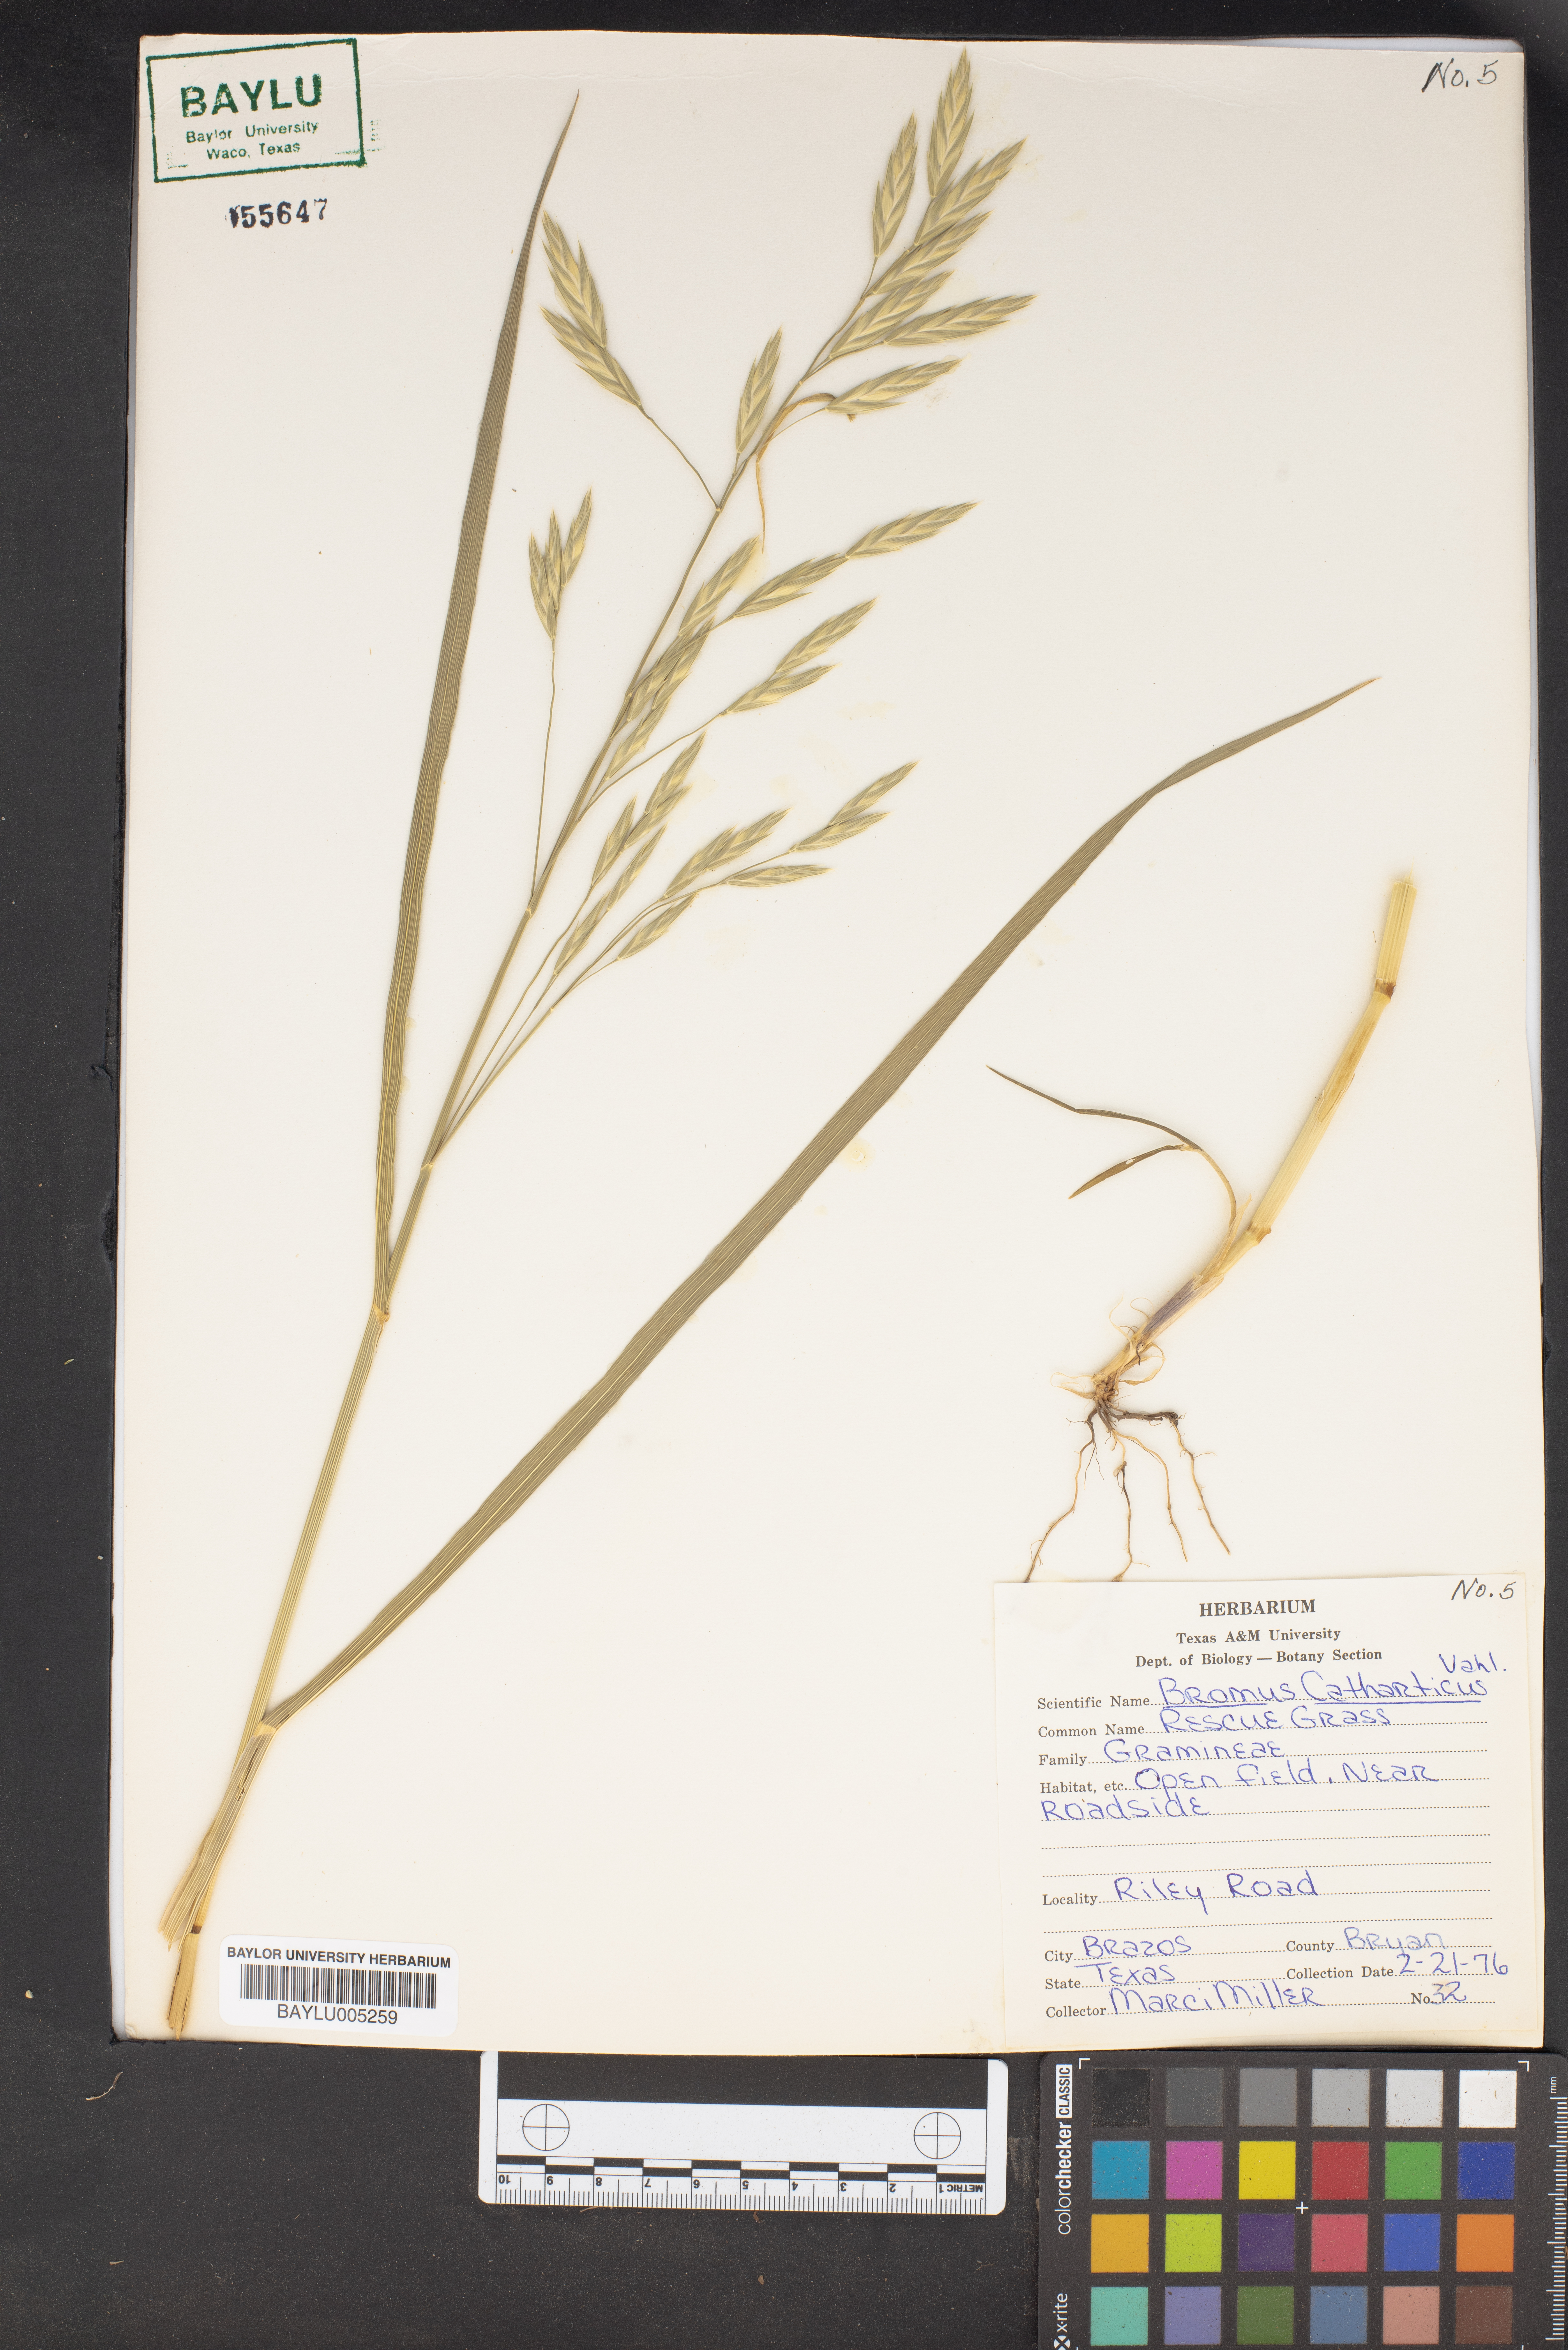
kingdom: Plantae
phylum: Tracheophyta
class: Liliopsida
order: Poales
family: Poaceae
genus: Bromus
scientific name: Bromus catharticus
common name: Rescuegrass
